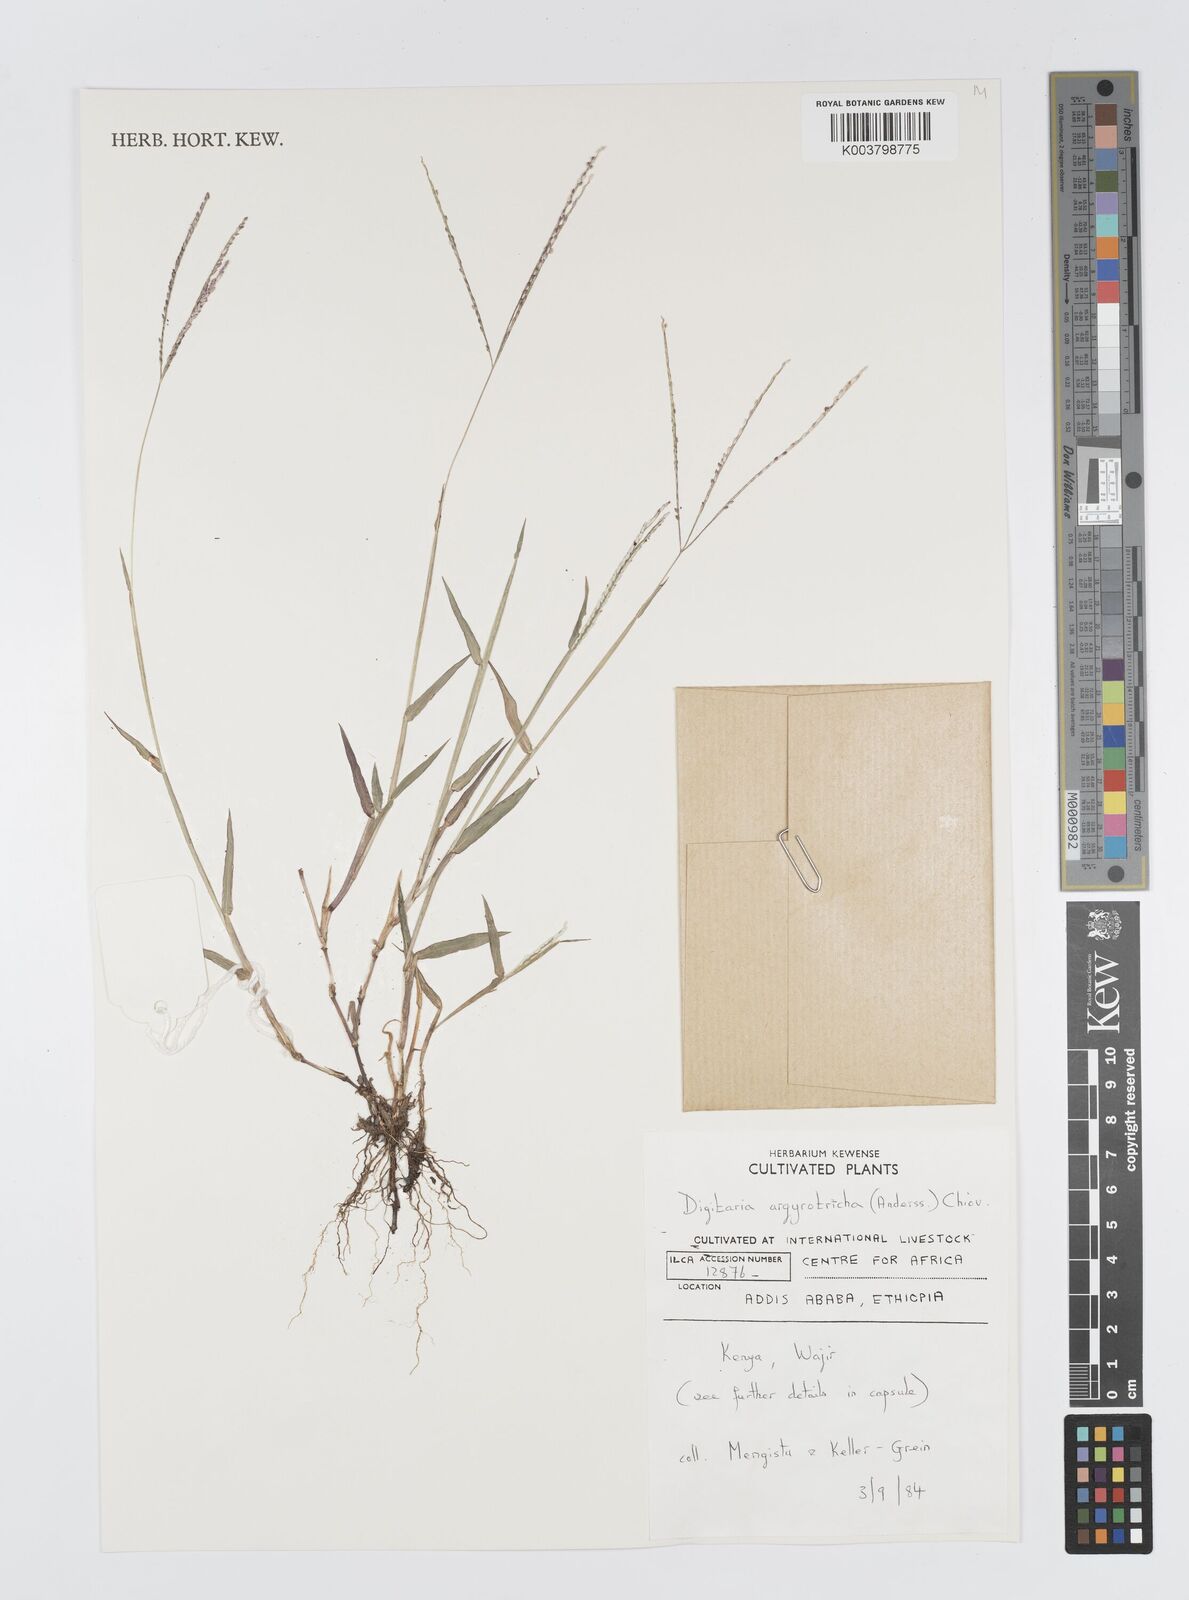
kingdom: Plantae
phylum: Tracheophyta
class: Liliopsida
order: Poales
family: Poaceae
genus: Digitaria
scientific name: Digitaria argyrotricha
